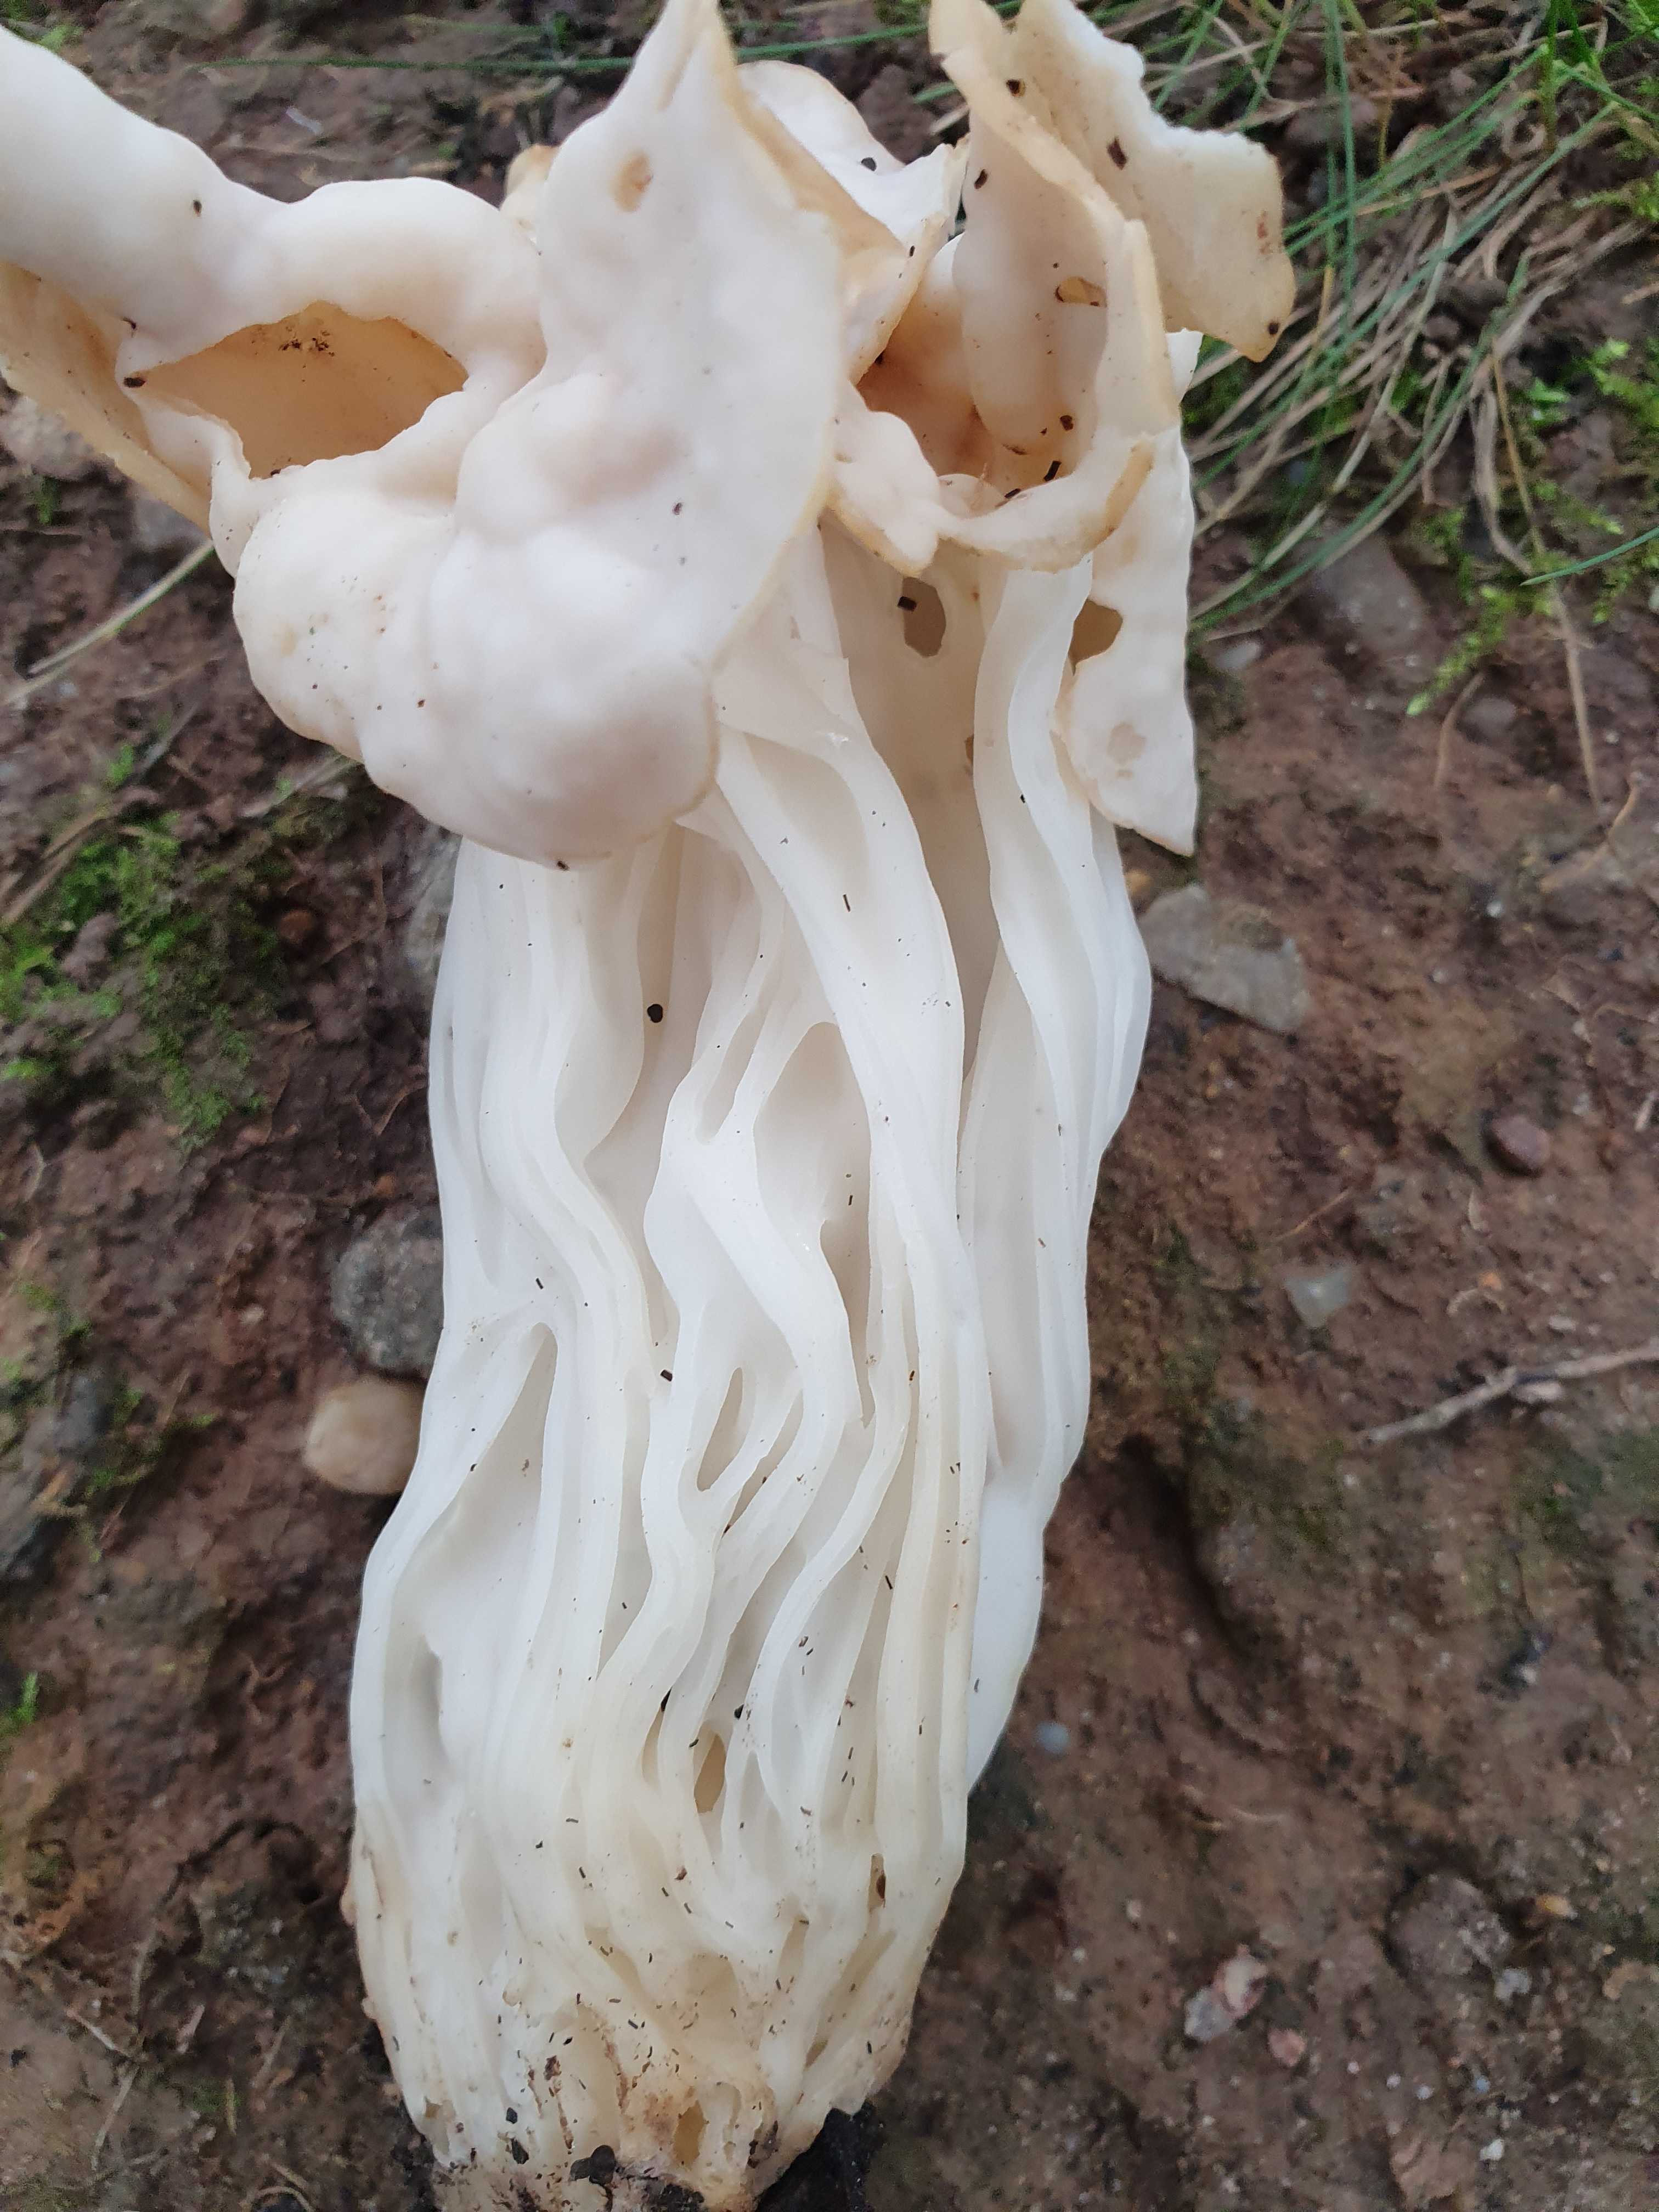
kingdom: Fungi
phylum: Ascomycota
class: Pezizomycetes
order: Pezizales
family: Helvellaceae
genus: Helvella
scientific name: Helvella crispa
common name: kruset foldhat
